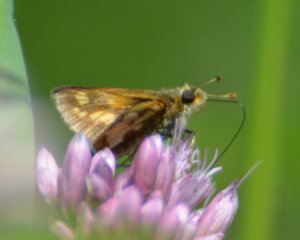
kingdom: Animalia
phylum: Arthropoda
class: Insecta
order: Lepidoptera
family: Hesperiidae
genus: Polites
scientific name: Polites coras
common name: Peck's Skipper
